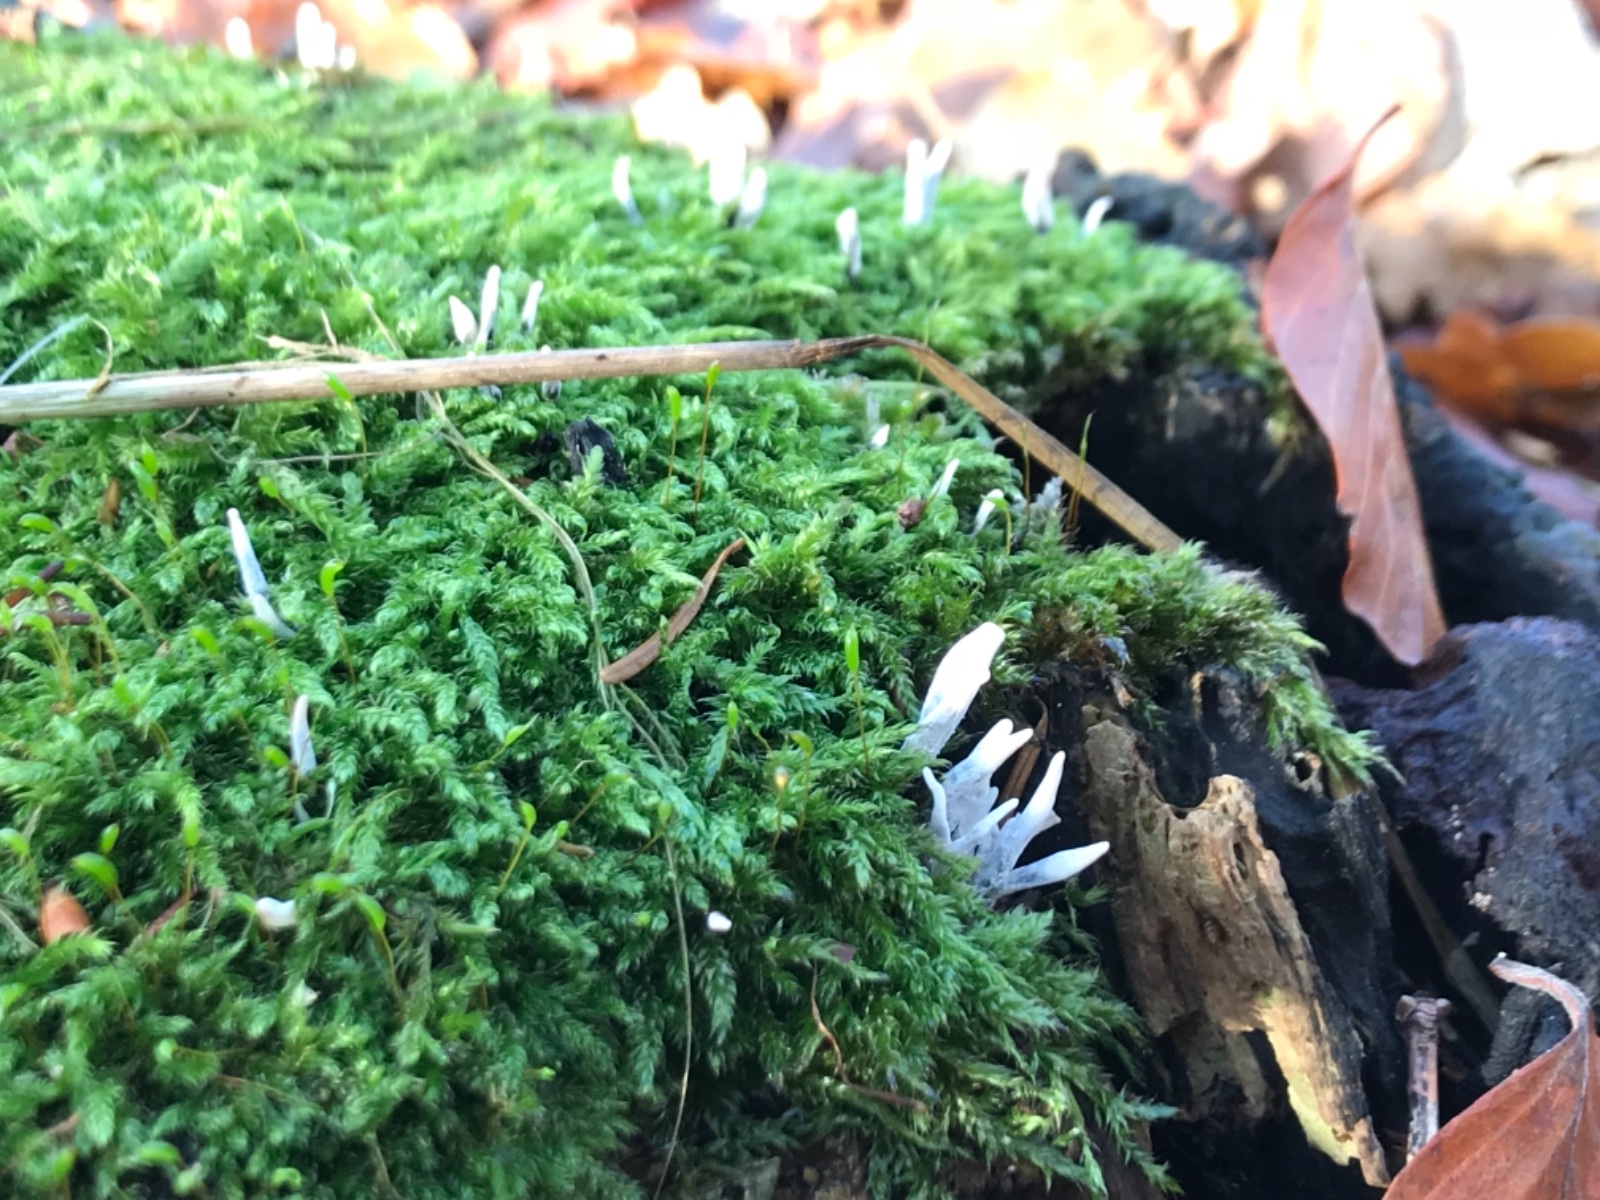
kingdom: Fungi
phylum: Ascomycota
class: Sordariomycetes
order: Xylariales
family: Xylariaceae
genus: Xylaria
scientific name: Xylaria hypoxylon
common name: grenet stødsvamp
